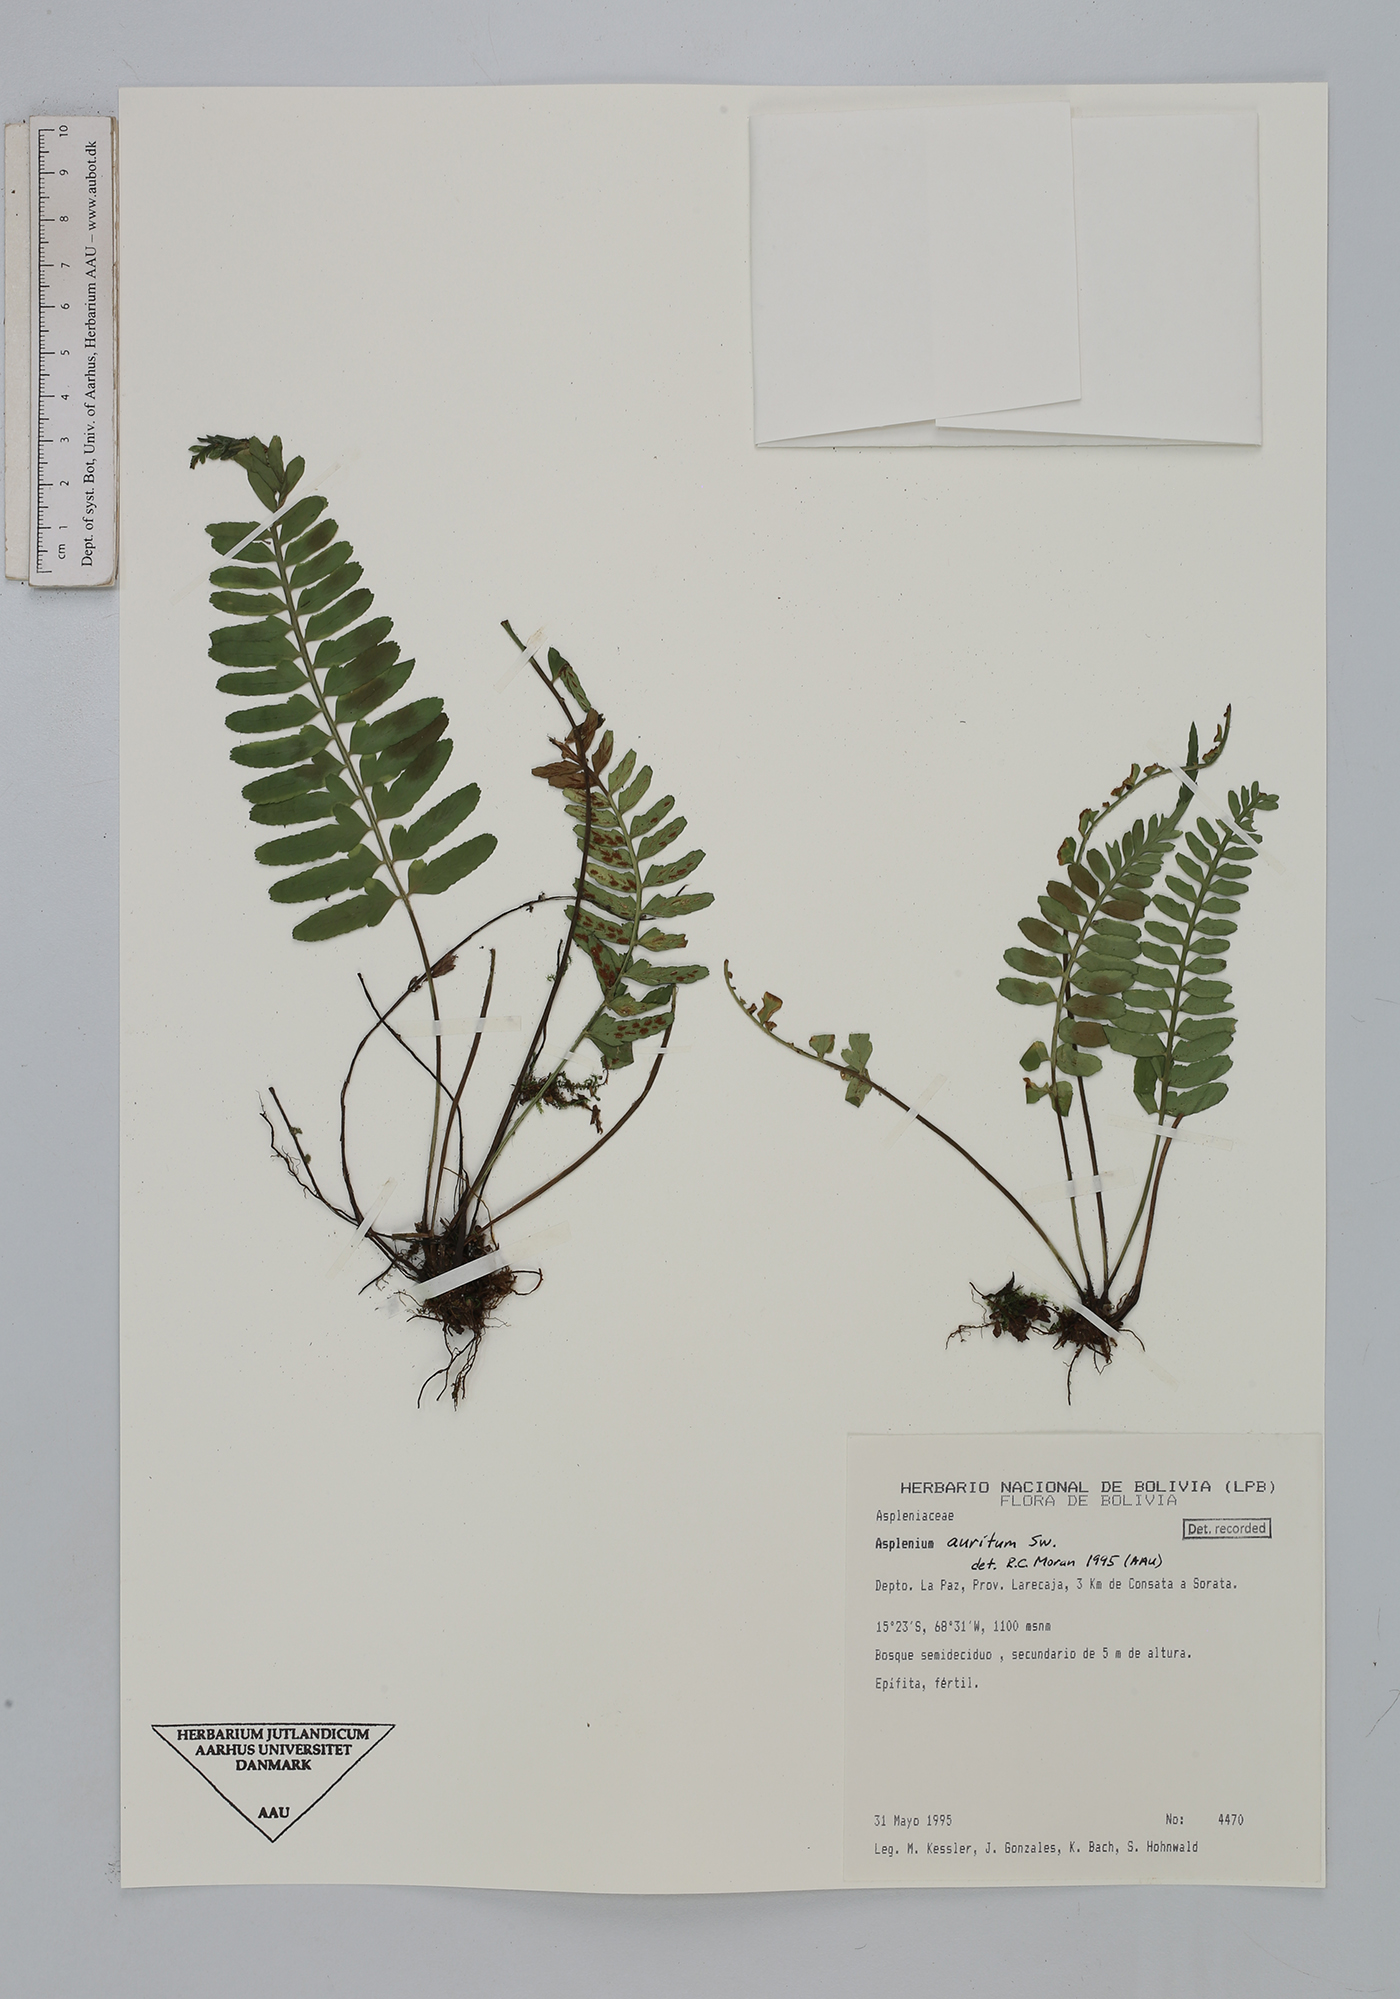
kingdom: Plantae
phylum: Tracheophyta
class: Polypodiopsida
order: Polypodiales
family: Aspleniaceae
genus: Asplenium
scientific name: Asplenium auritum
